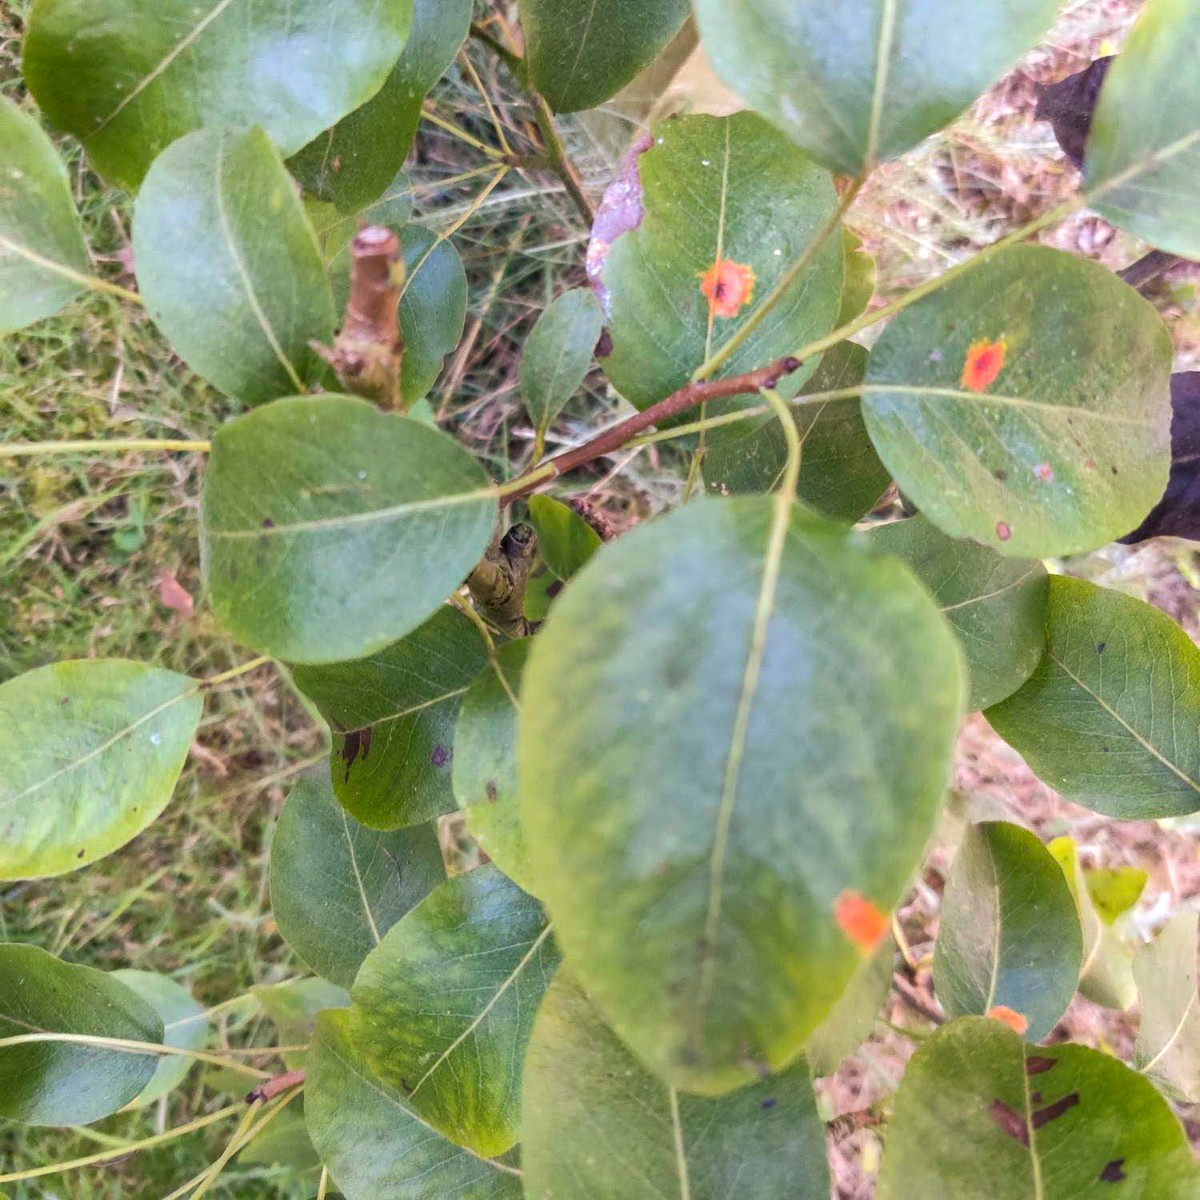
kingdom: Fungi
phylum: Basidiomycota
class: Pucciniomycetes
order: Pucciniales
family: Gymnosporangiaceae
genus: Gymnosporangium
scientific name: Gymnosporangium sabinae
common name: pæregitter-bævrerust
